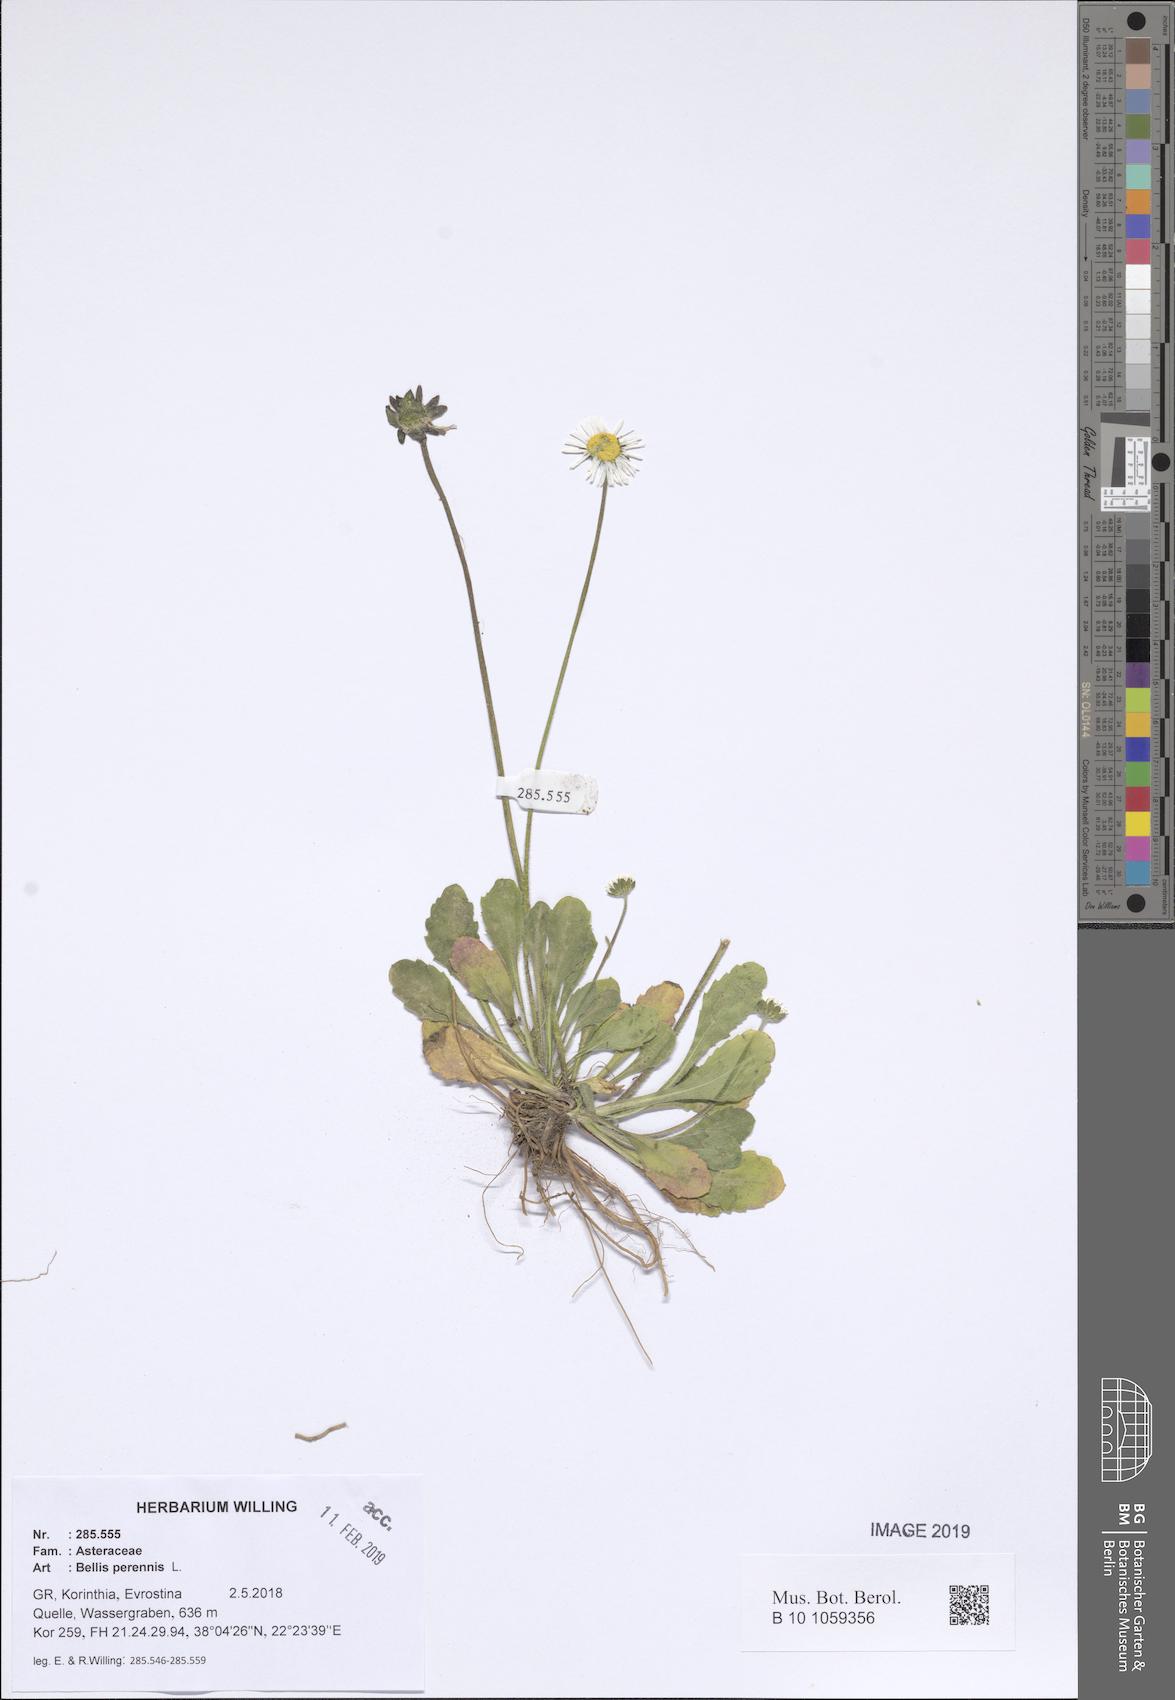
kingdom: Plantae
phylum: Tracheophyta
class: Magnoliopsida
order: Asterales
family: Asteraceae
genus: Bellis
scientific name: Bellis perennis
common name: Lawndaisy
